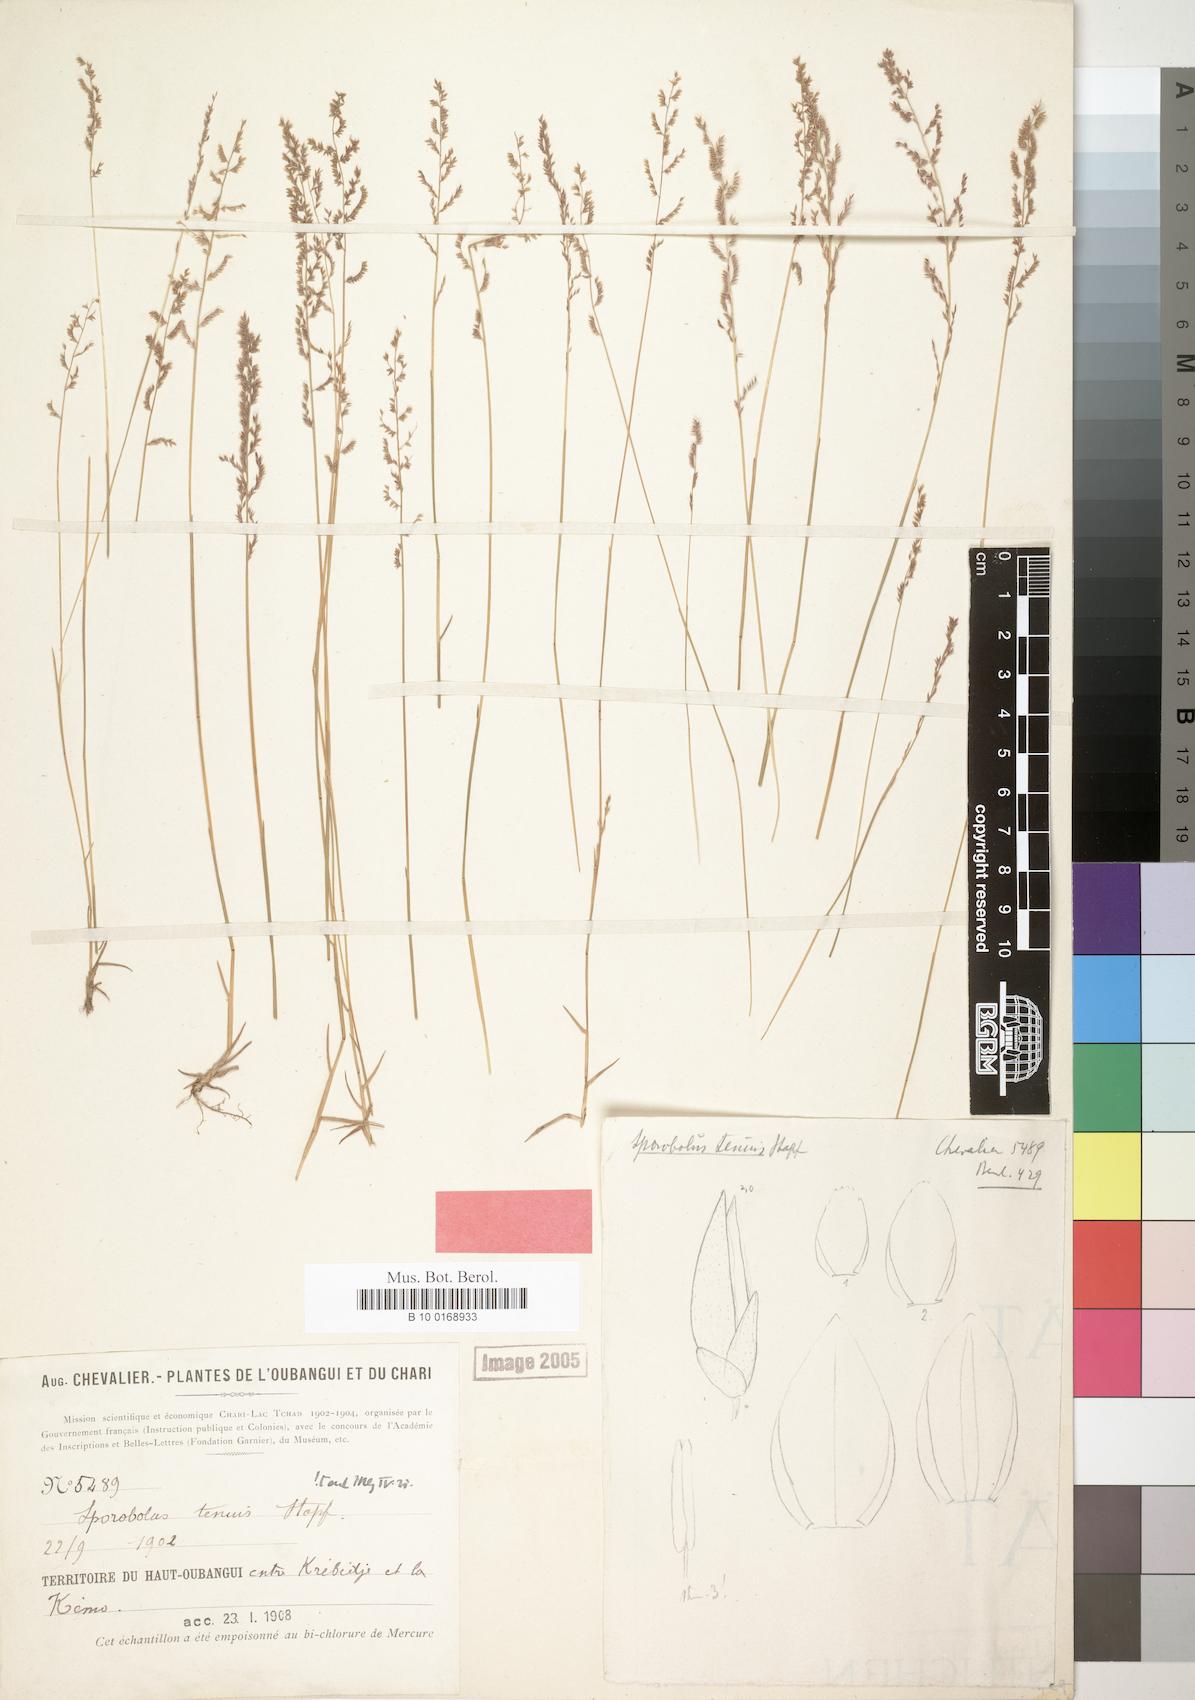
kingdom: Plantae
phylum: Tracheophyta
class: Liliopsida
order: Poales
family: Poaceae
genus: Sporobolus
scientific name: Sporobolus infirmus
